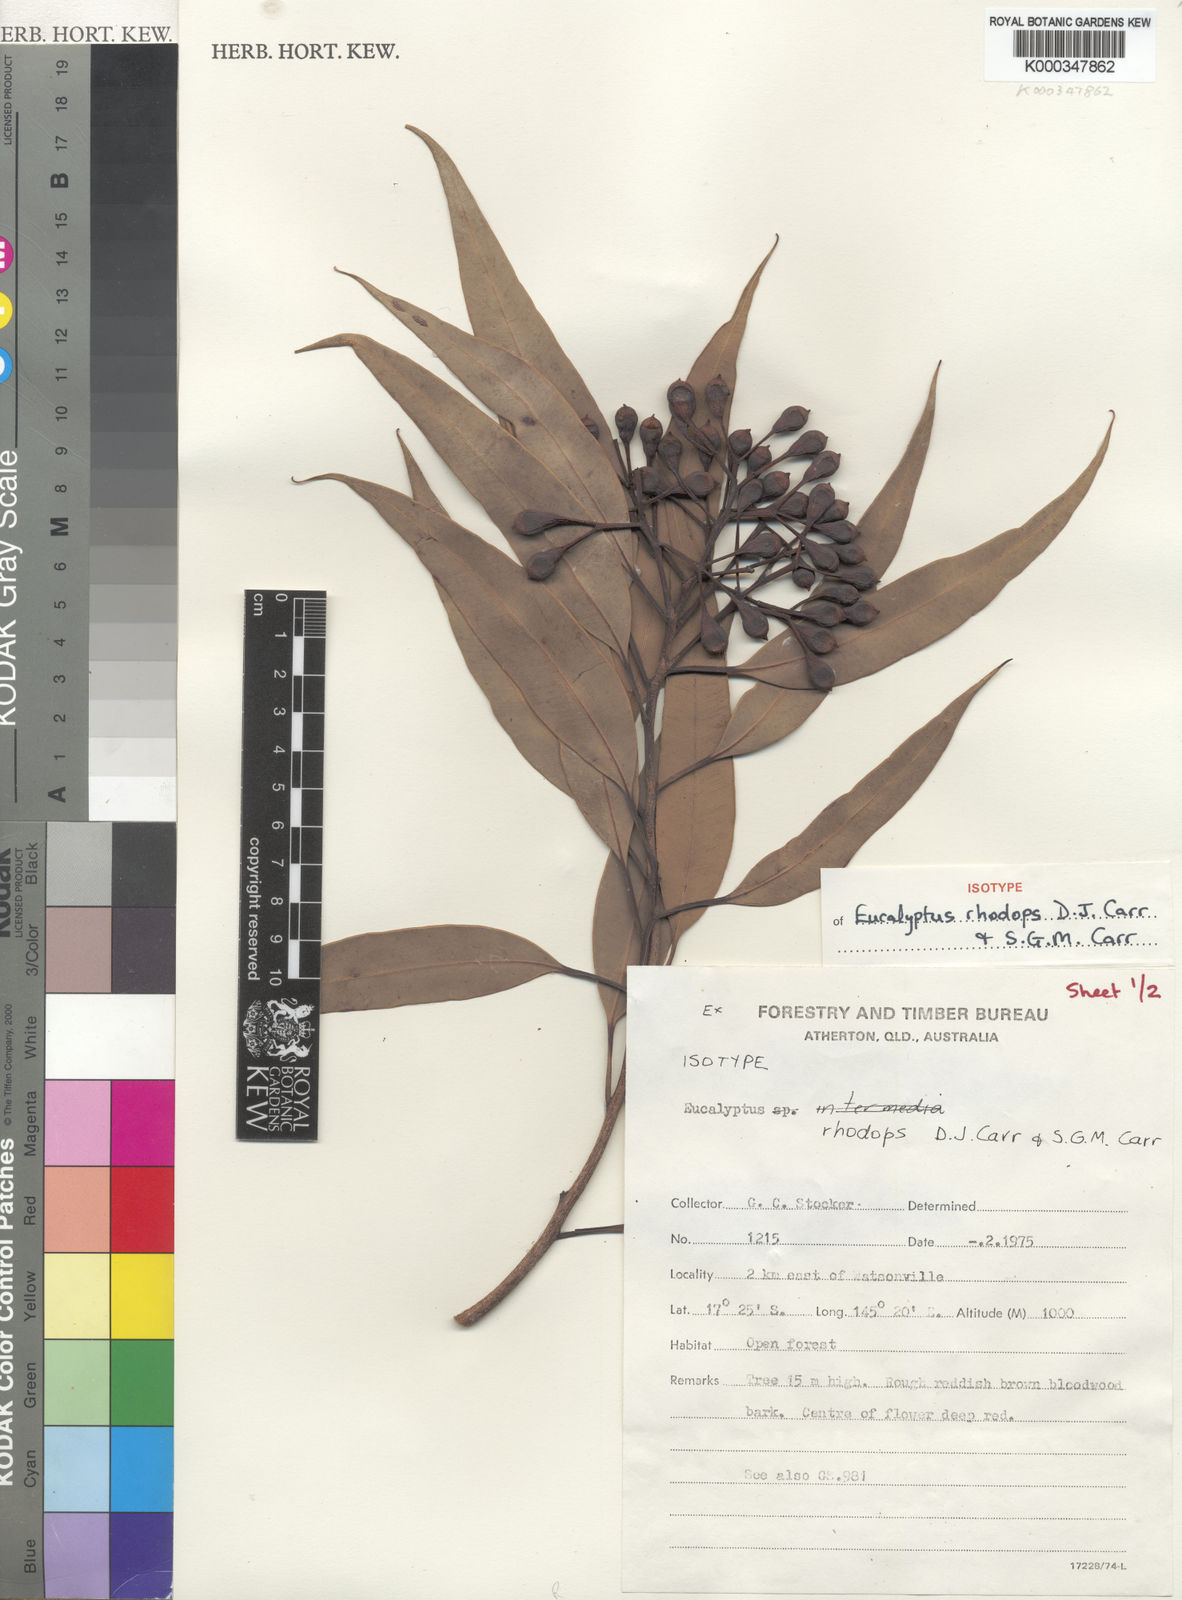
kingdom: Plantae
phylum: Tracheophyta
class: Magnoliopsida
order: Myrtales
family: Myrtaceae
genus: Corymbia
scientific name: Corymbia rhodops
